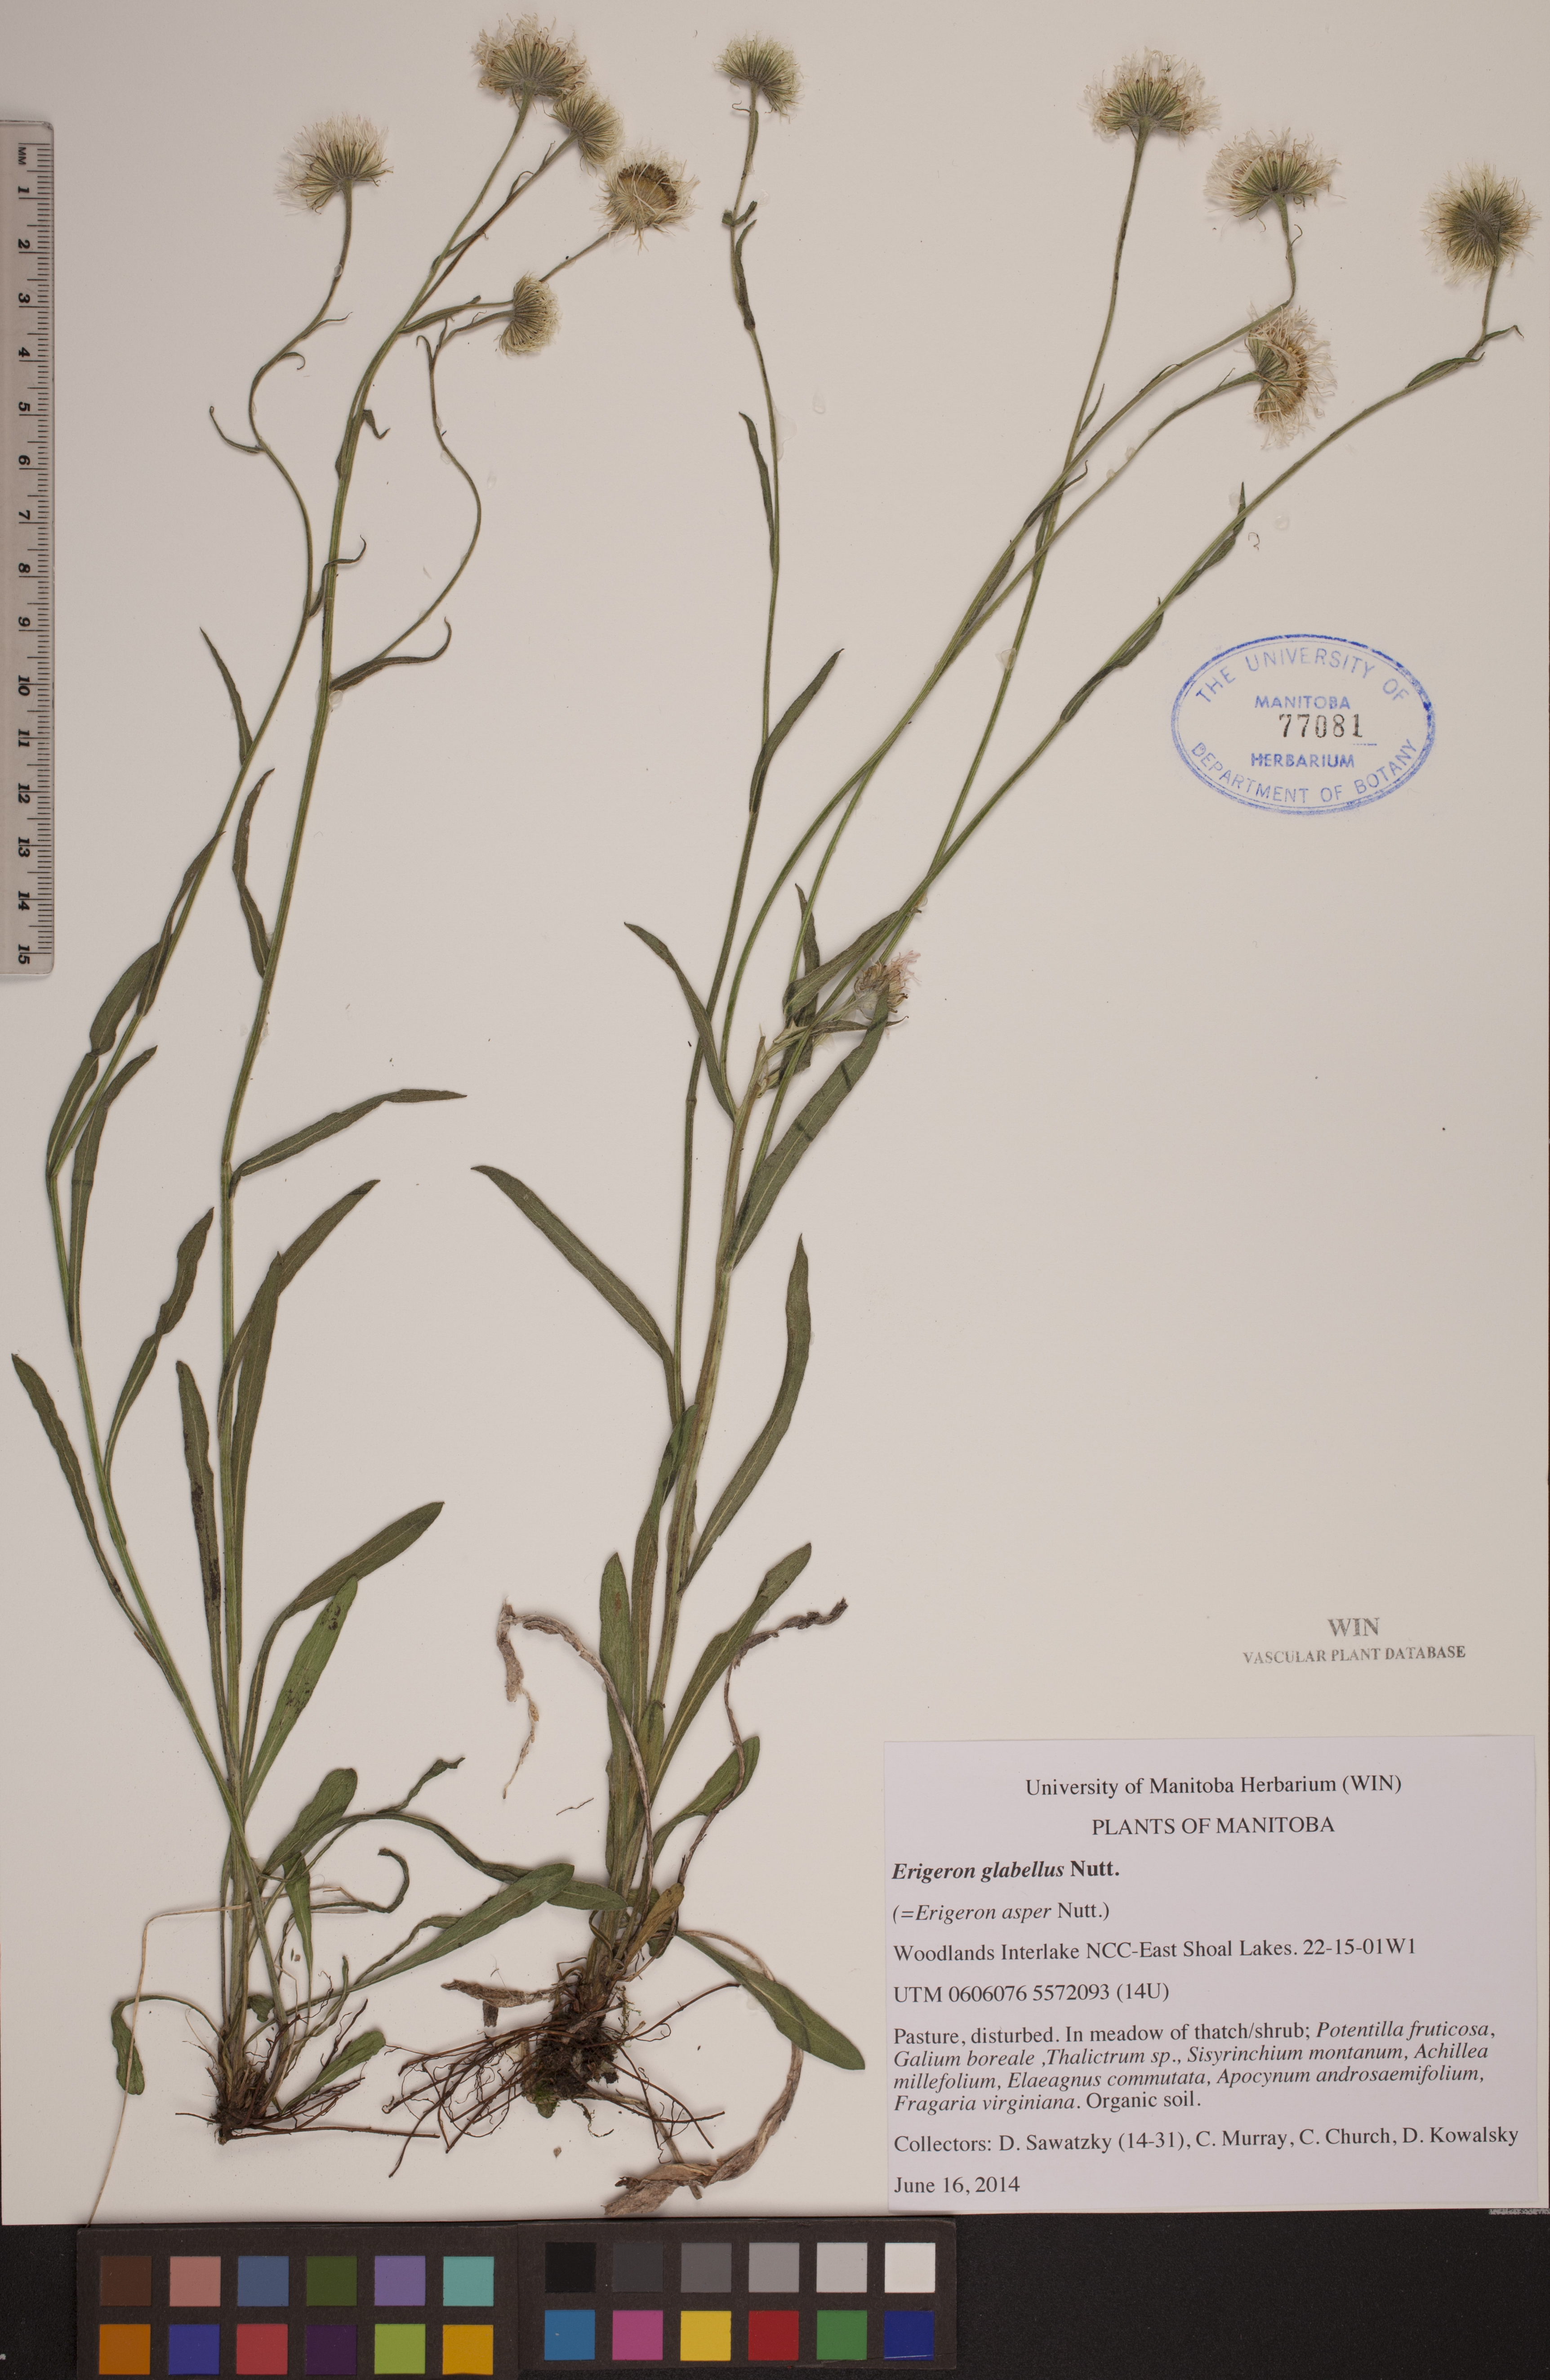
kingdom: Plantae
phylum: Tracheophyta
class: Magnoliopsida
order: Asterales
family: Asteraceae
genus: Erigeron
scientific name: Erigeron glabellus
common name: Smooth fleabane
